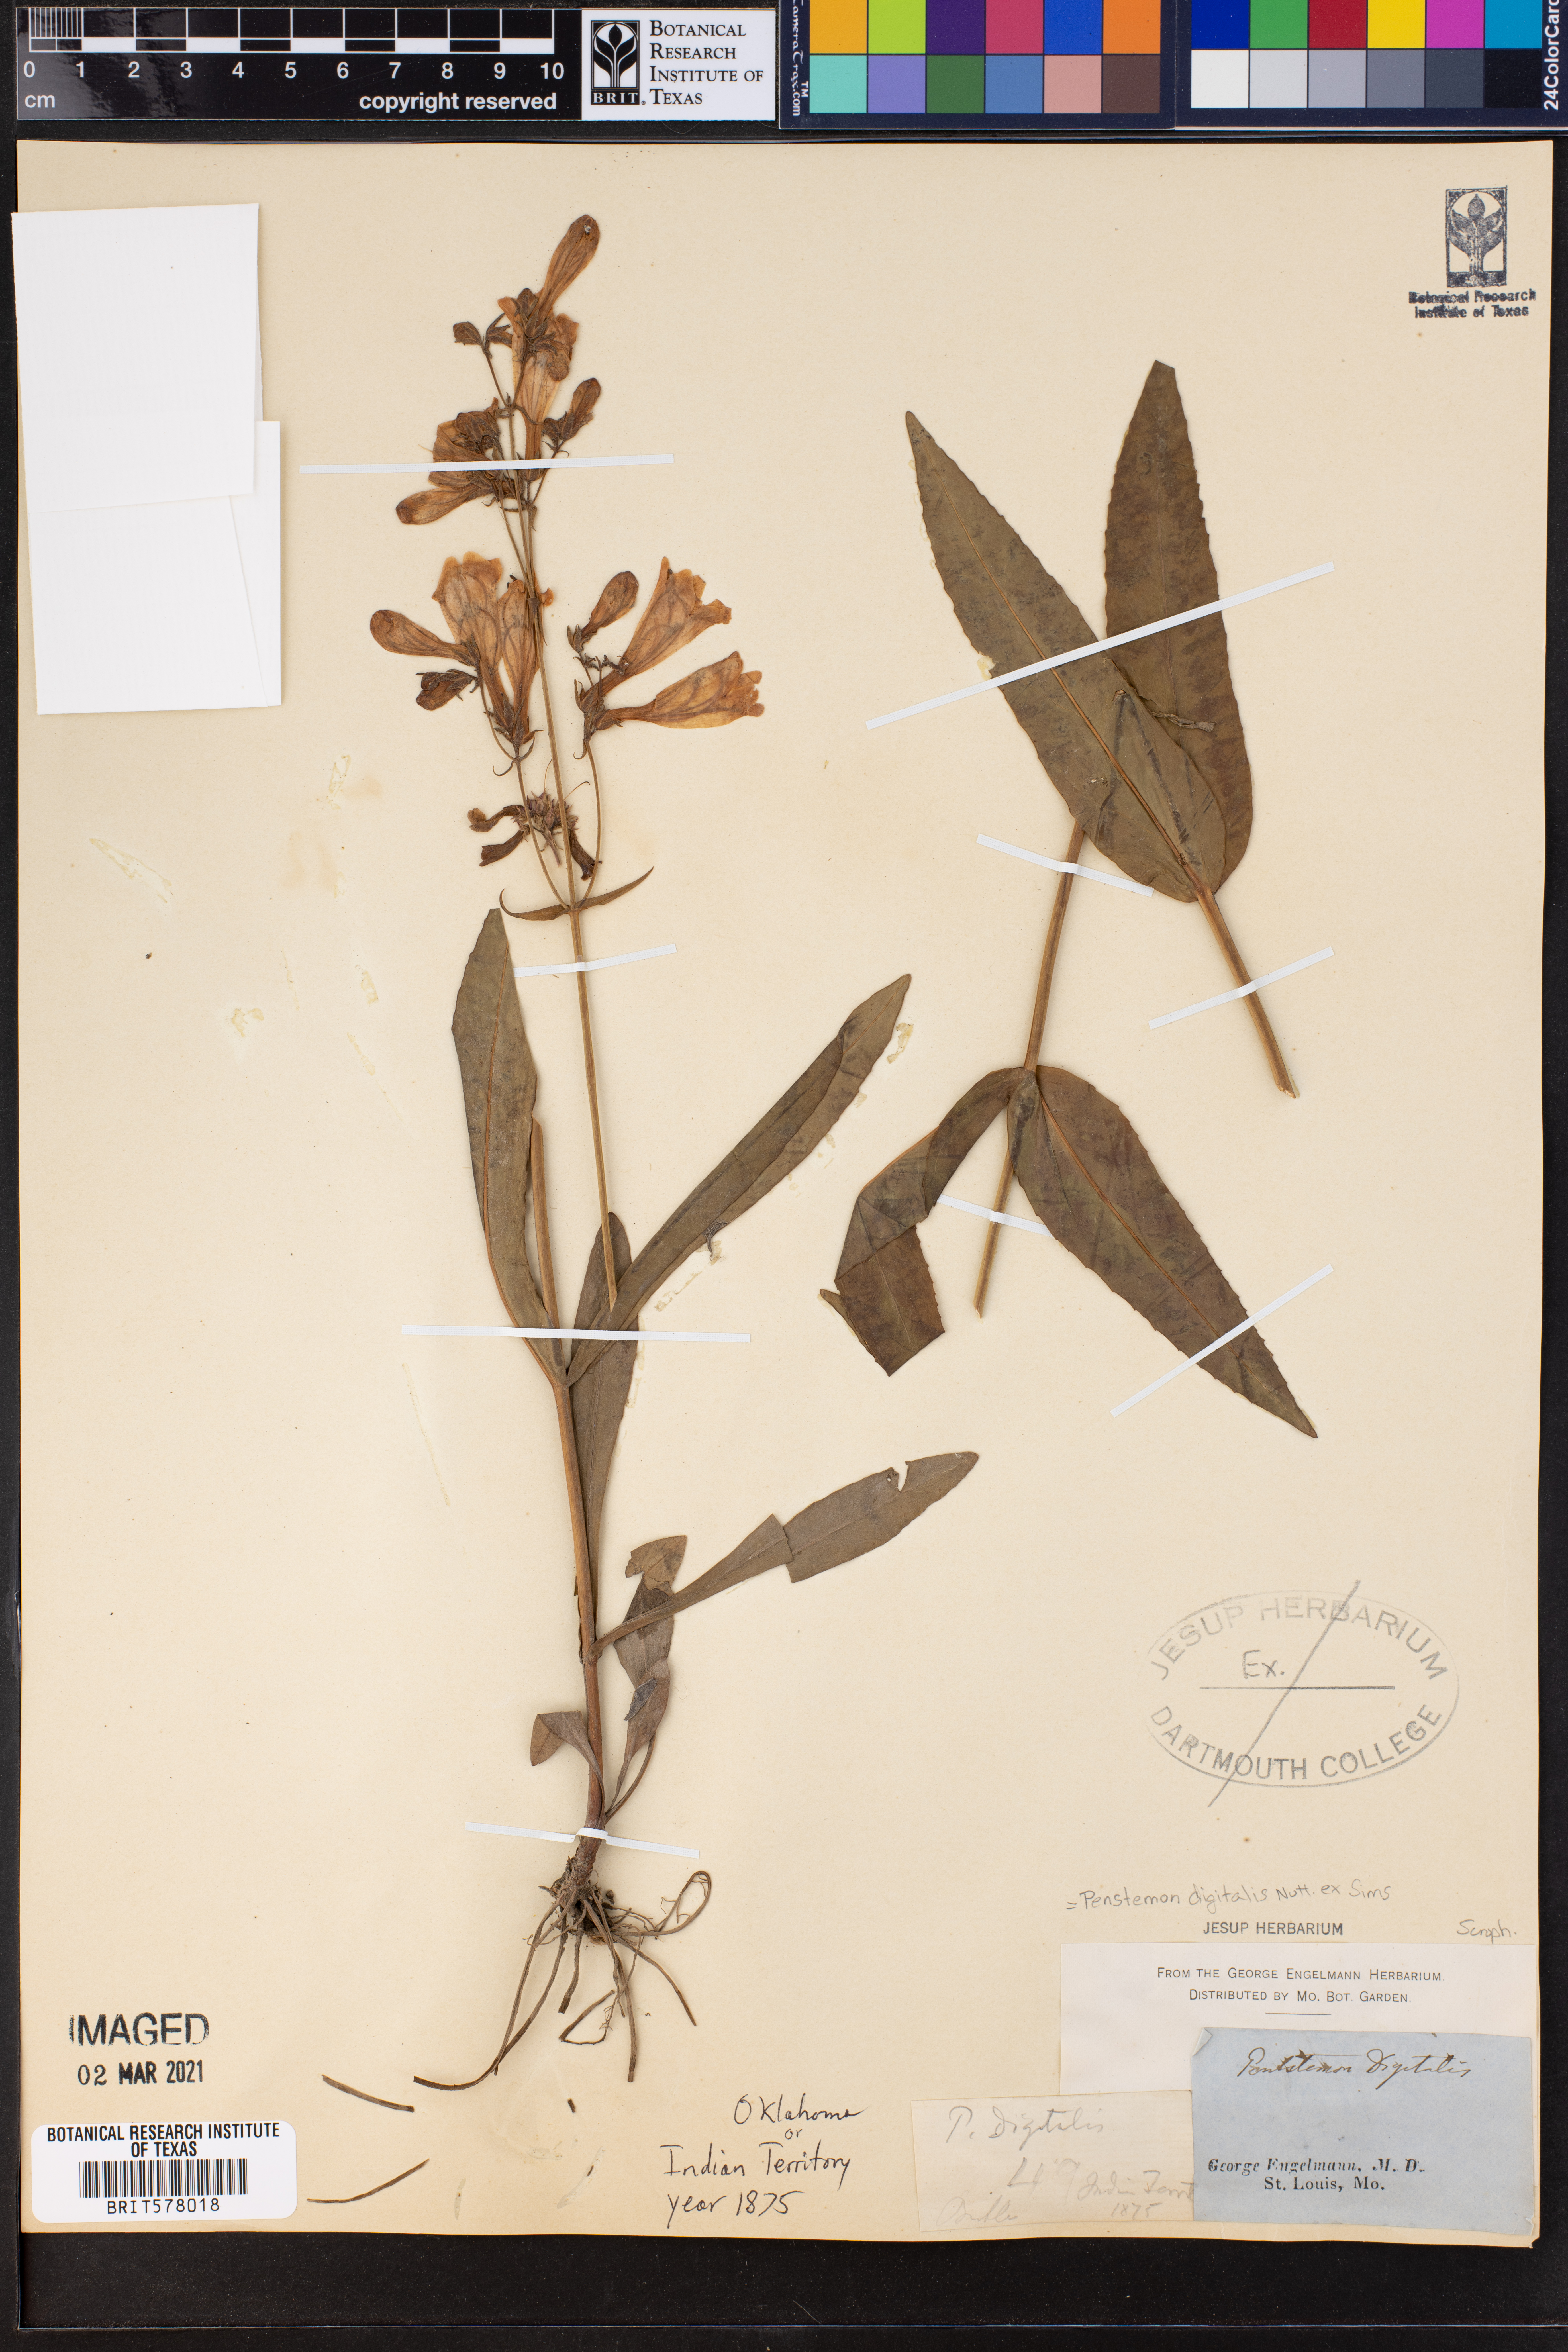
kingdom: Plantae
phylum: Tracheophyta
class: Magnoliopsida
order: Lamiales
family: Plantaginaceae
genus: Penstemon
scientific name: Penstemon digitalis
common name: Foxglove beardtongue
